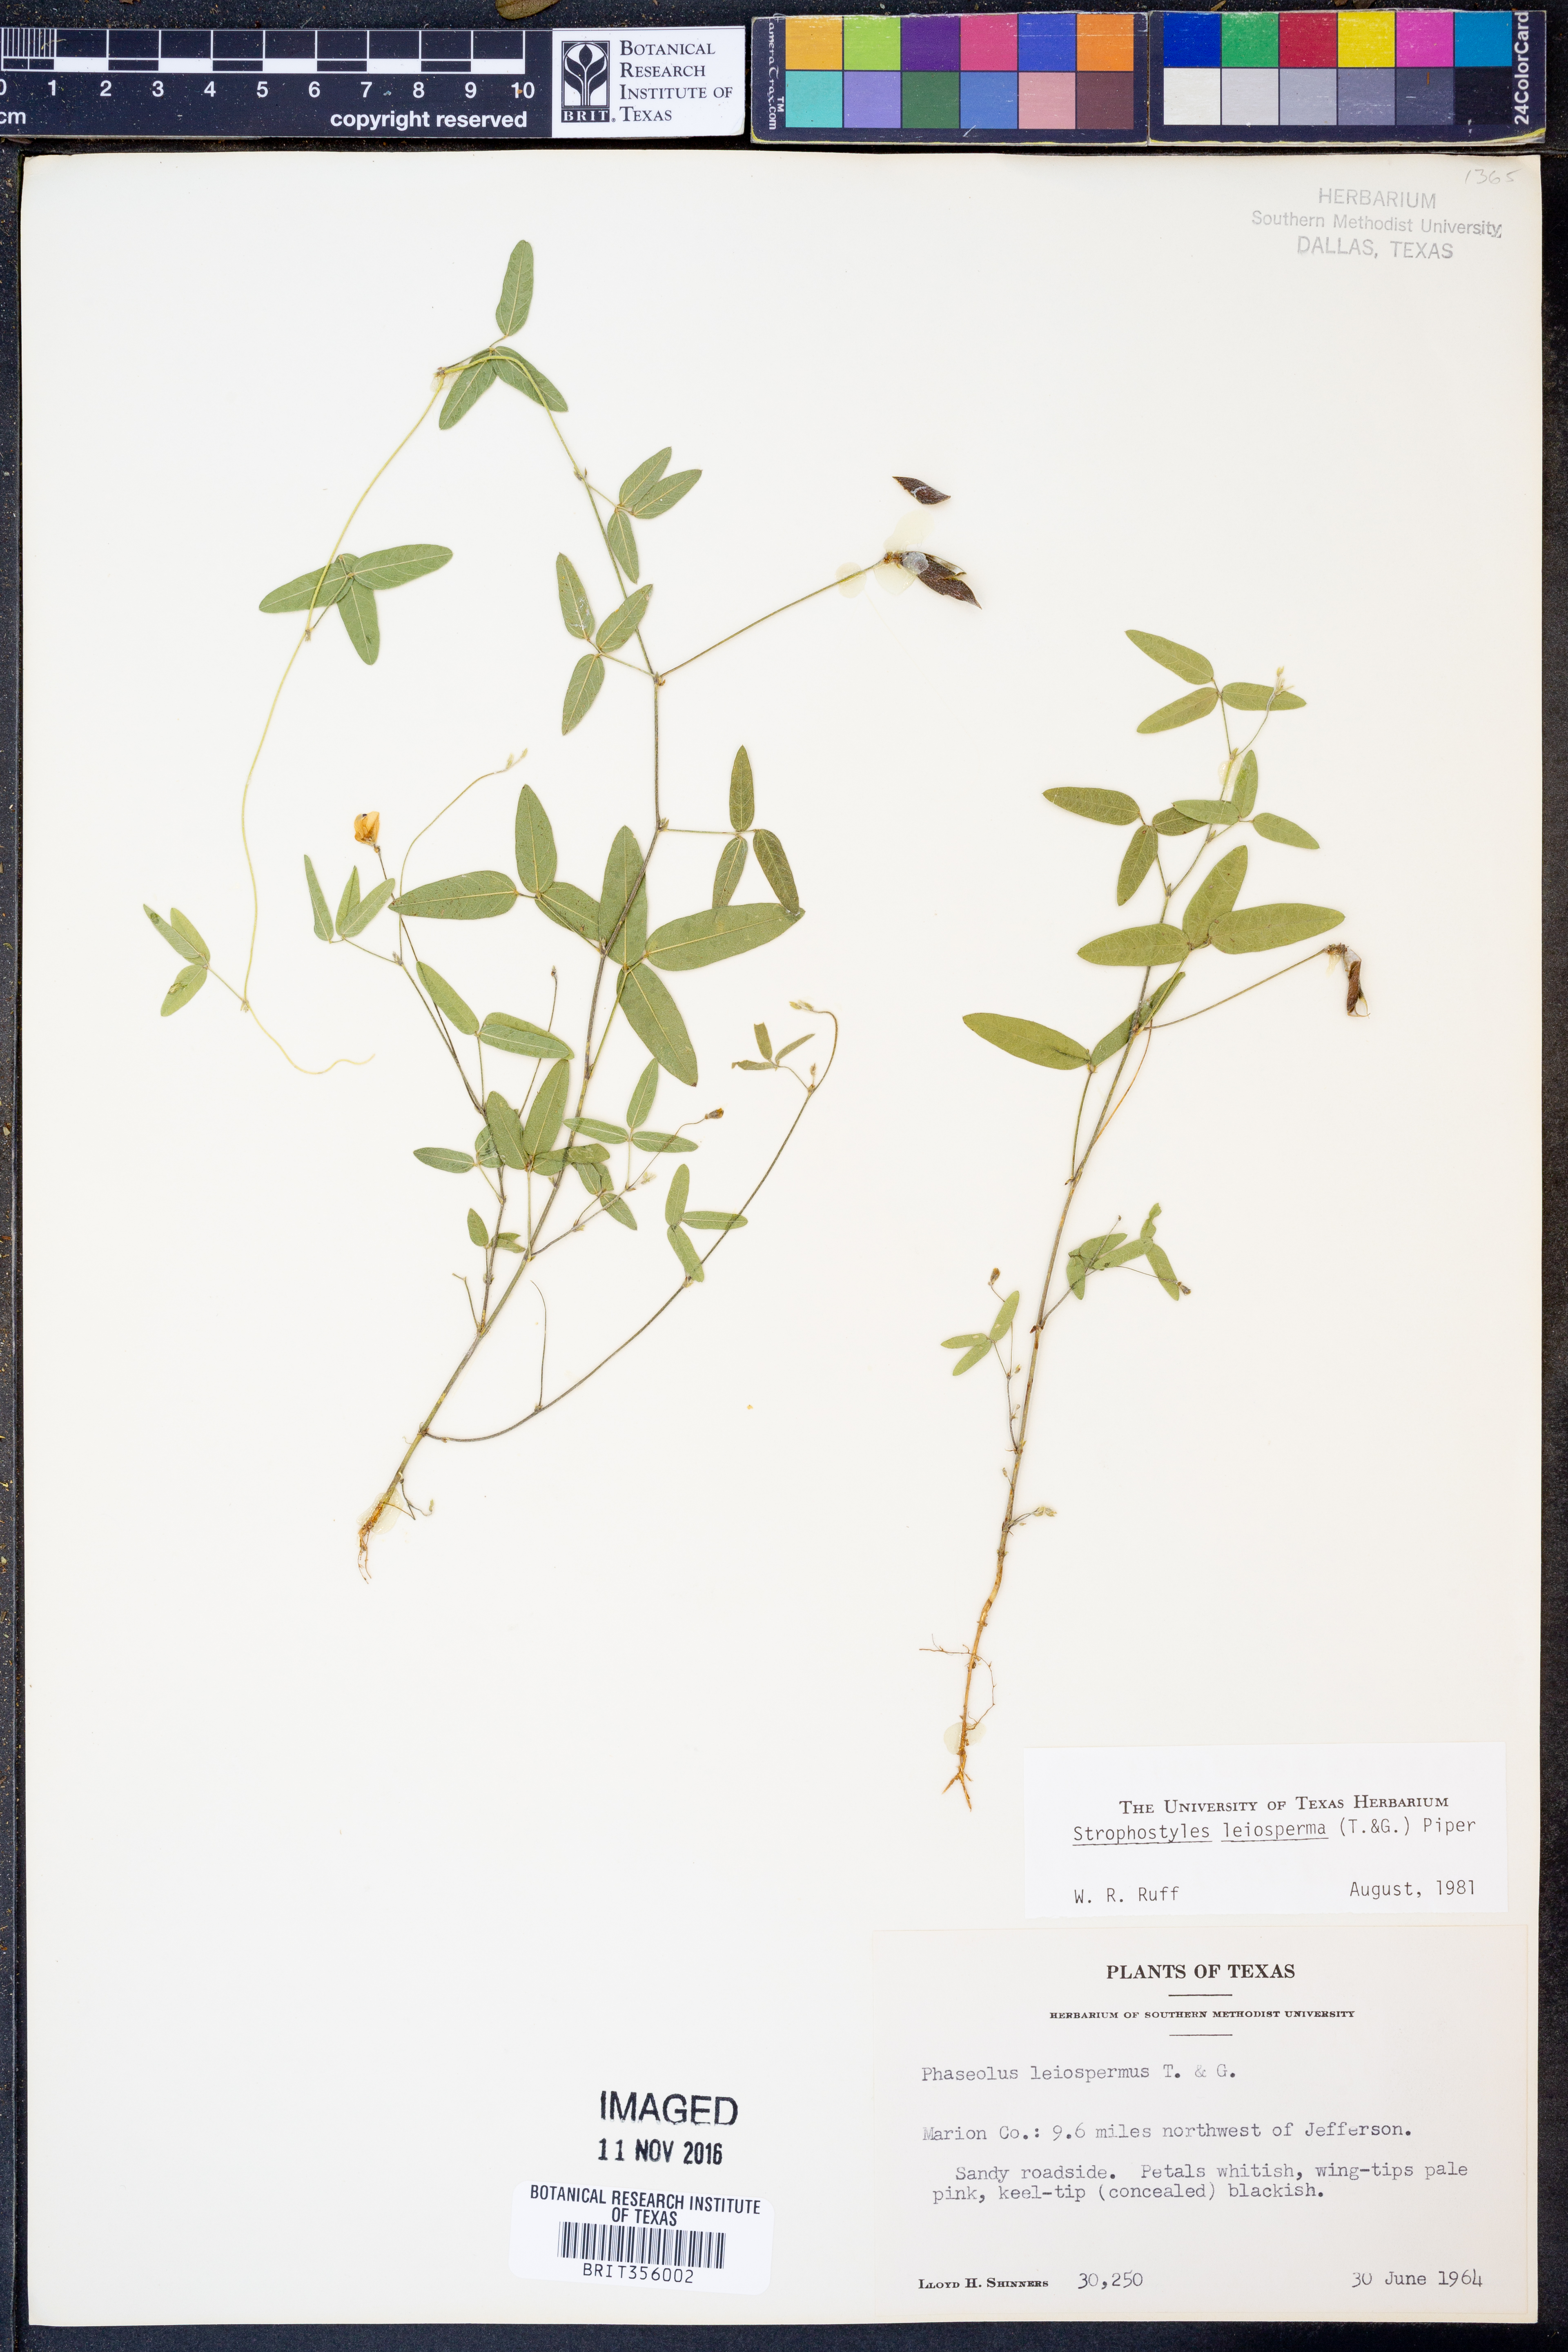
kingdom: Plantae
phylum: Tracheophyta
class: Magnoliopsida
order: Fabales
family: Fabaceae
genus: Strophostyles
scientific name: Strophostyles leiosperma
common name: Smooth-seed wild bean
